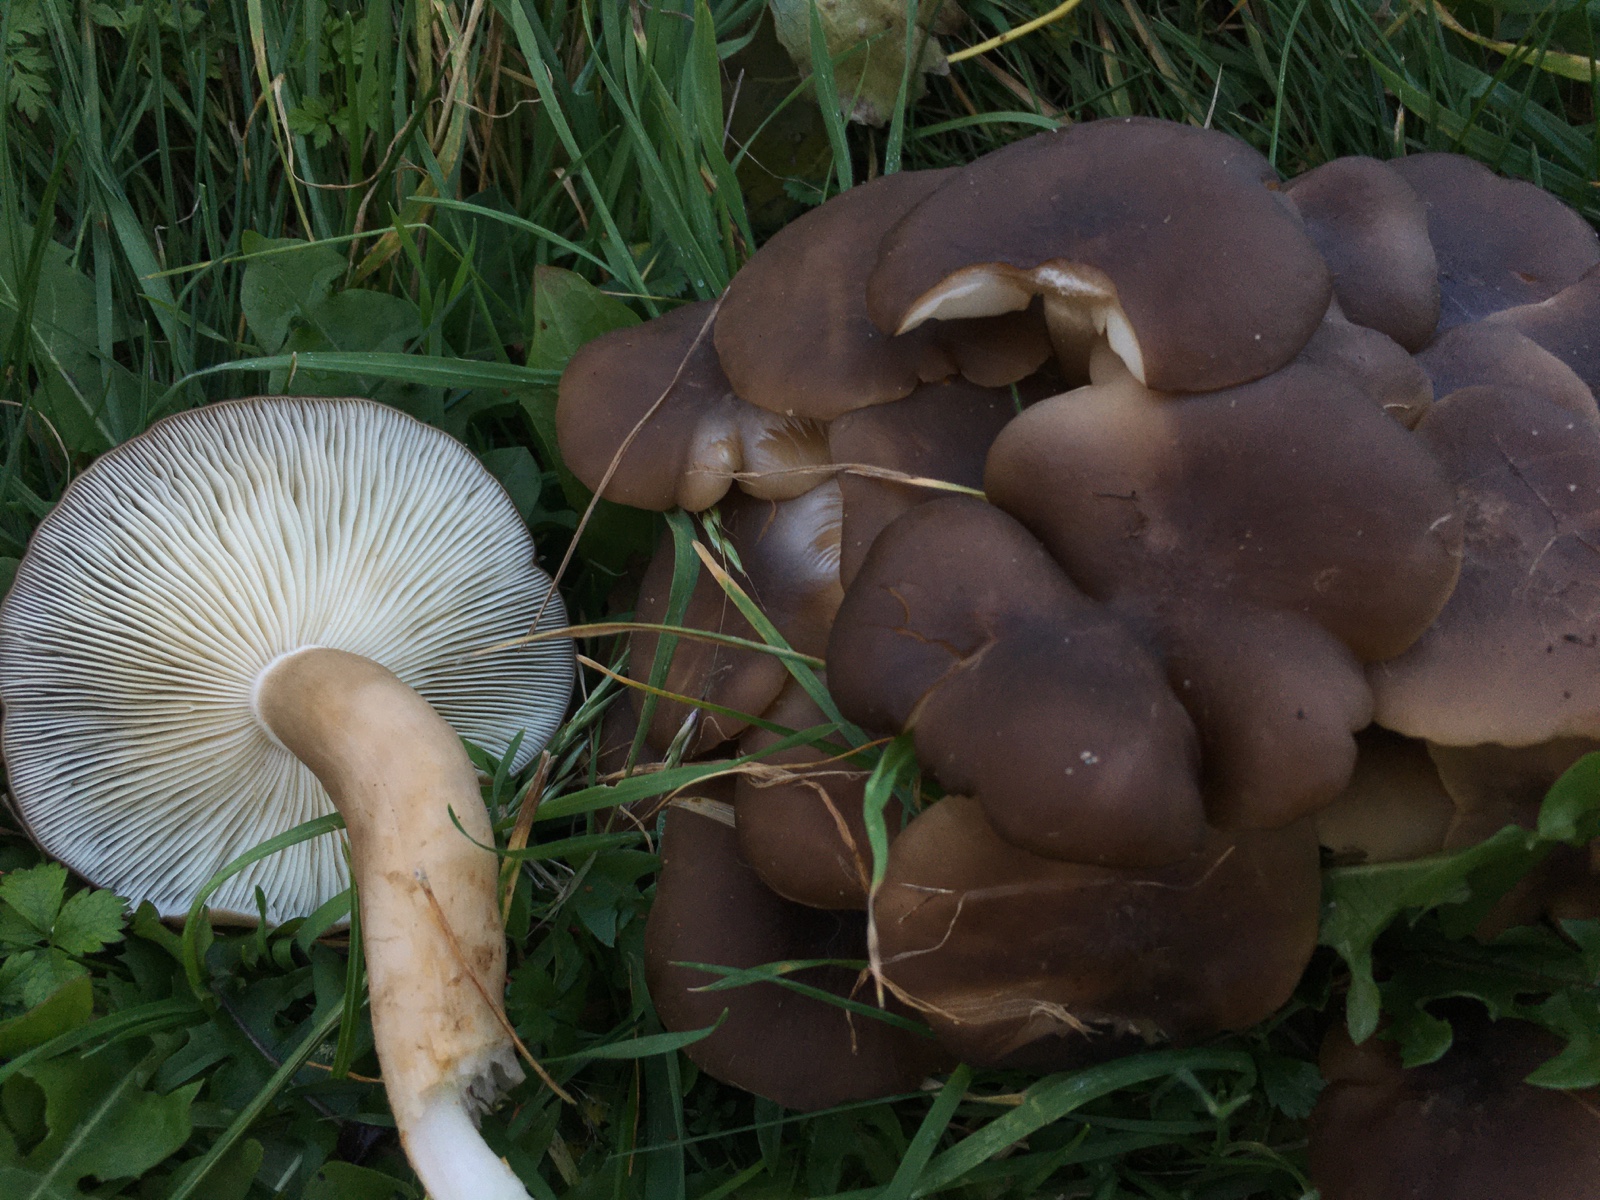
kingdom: Fungi
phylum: Basidiomycota
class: Agaricomycetes
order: Agaricales
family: Lyophyllaceae
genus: Lyophyllum
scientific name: Lyophyllum decastes
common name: Clustered domecap
